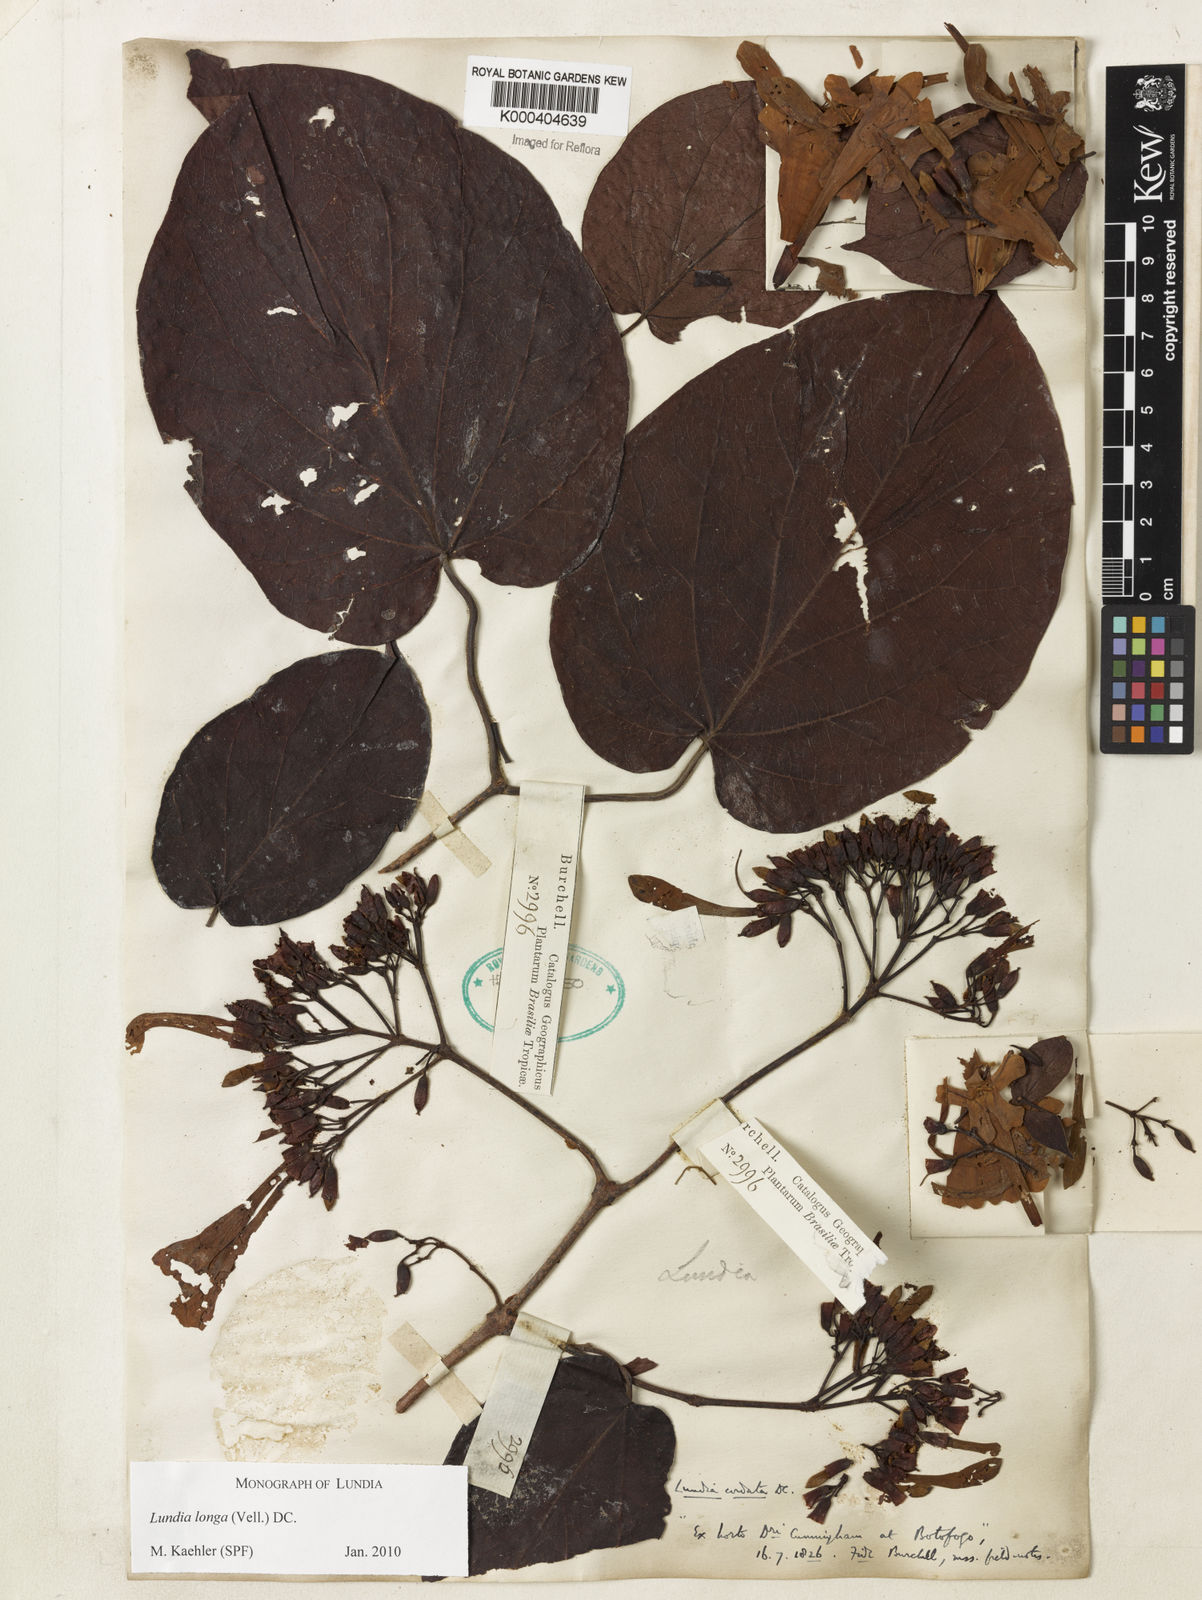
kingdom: Plantae
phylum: Tracheophyta
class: Magnoliopsida
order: Lamiales
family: Bignoniaceae
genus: Lundia
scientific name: Lundia longa
